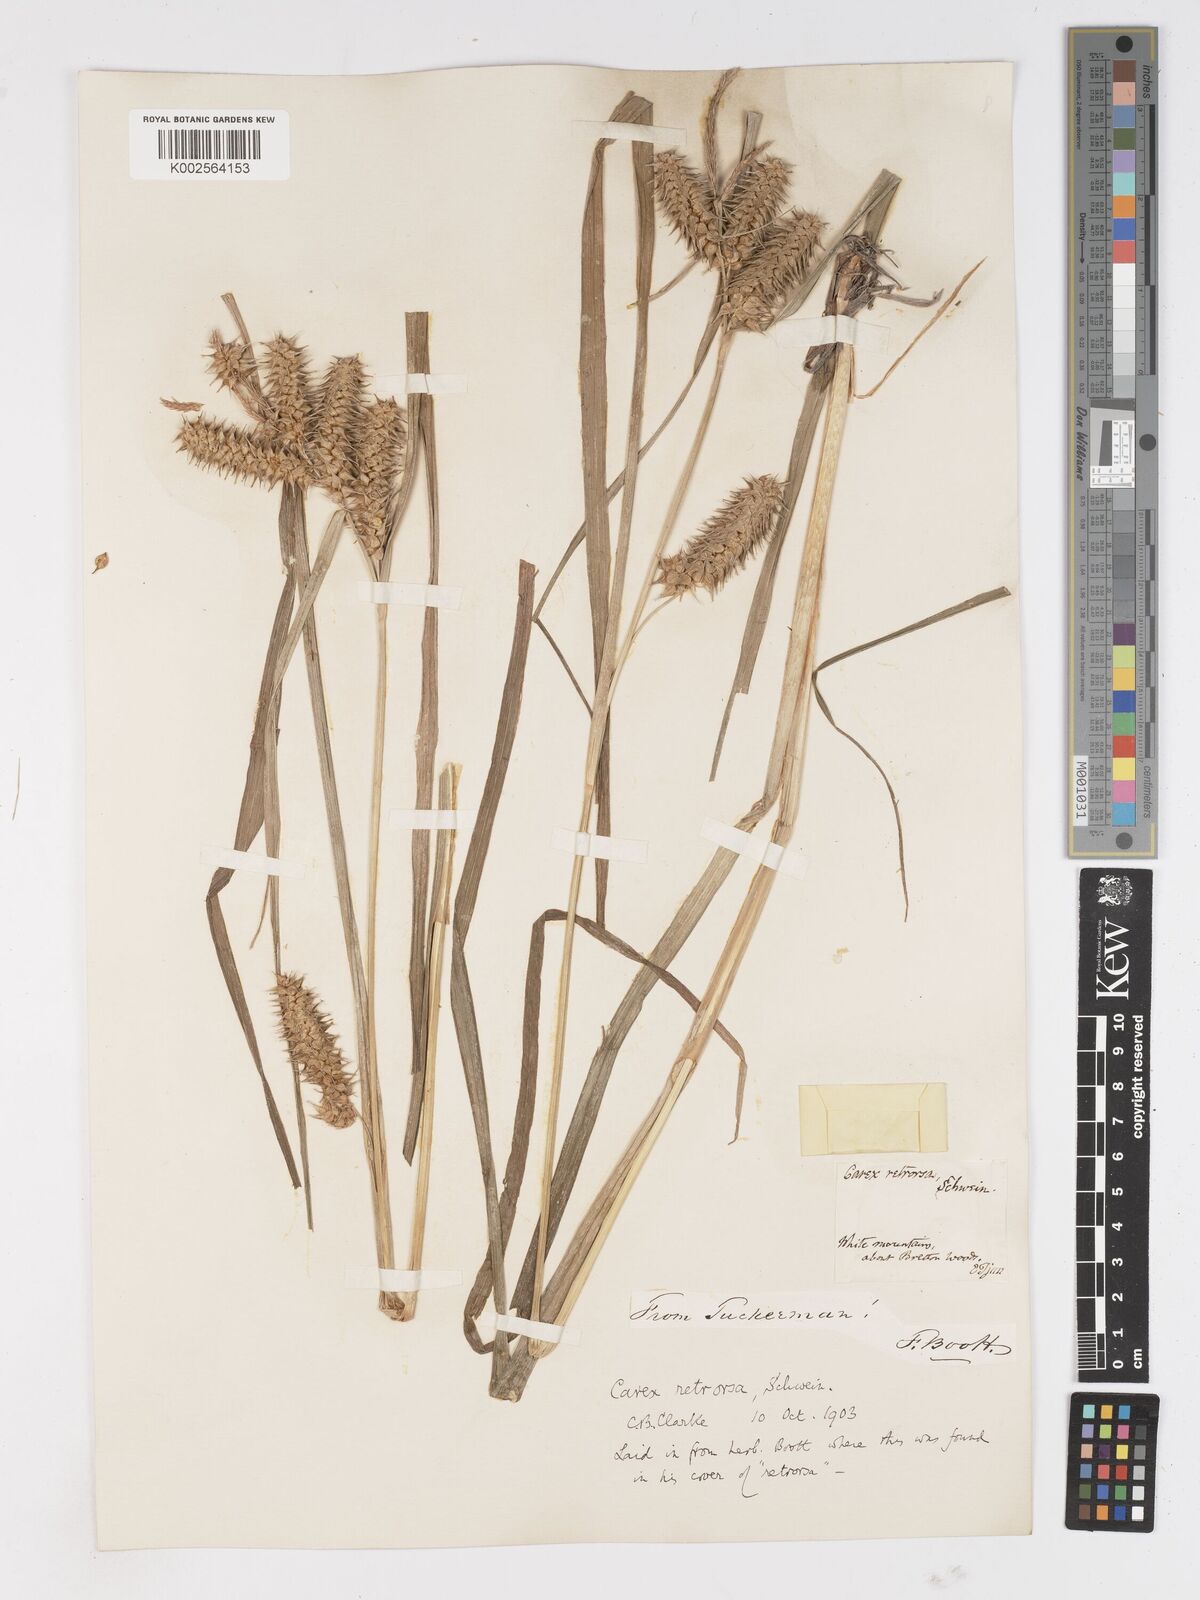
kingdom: Plantae
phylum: Tracheophyta
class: Liliopsida
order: Poales
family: Cyperaceae
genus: Carex
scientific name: Carex retrorsa
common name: Knot-sheath sedge
